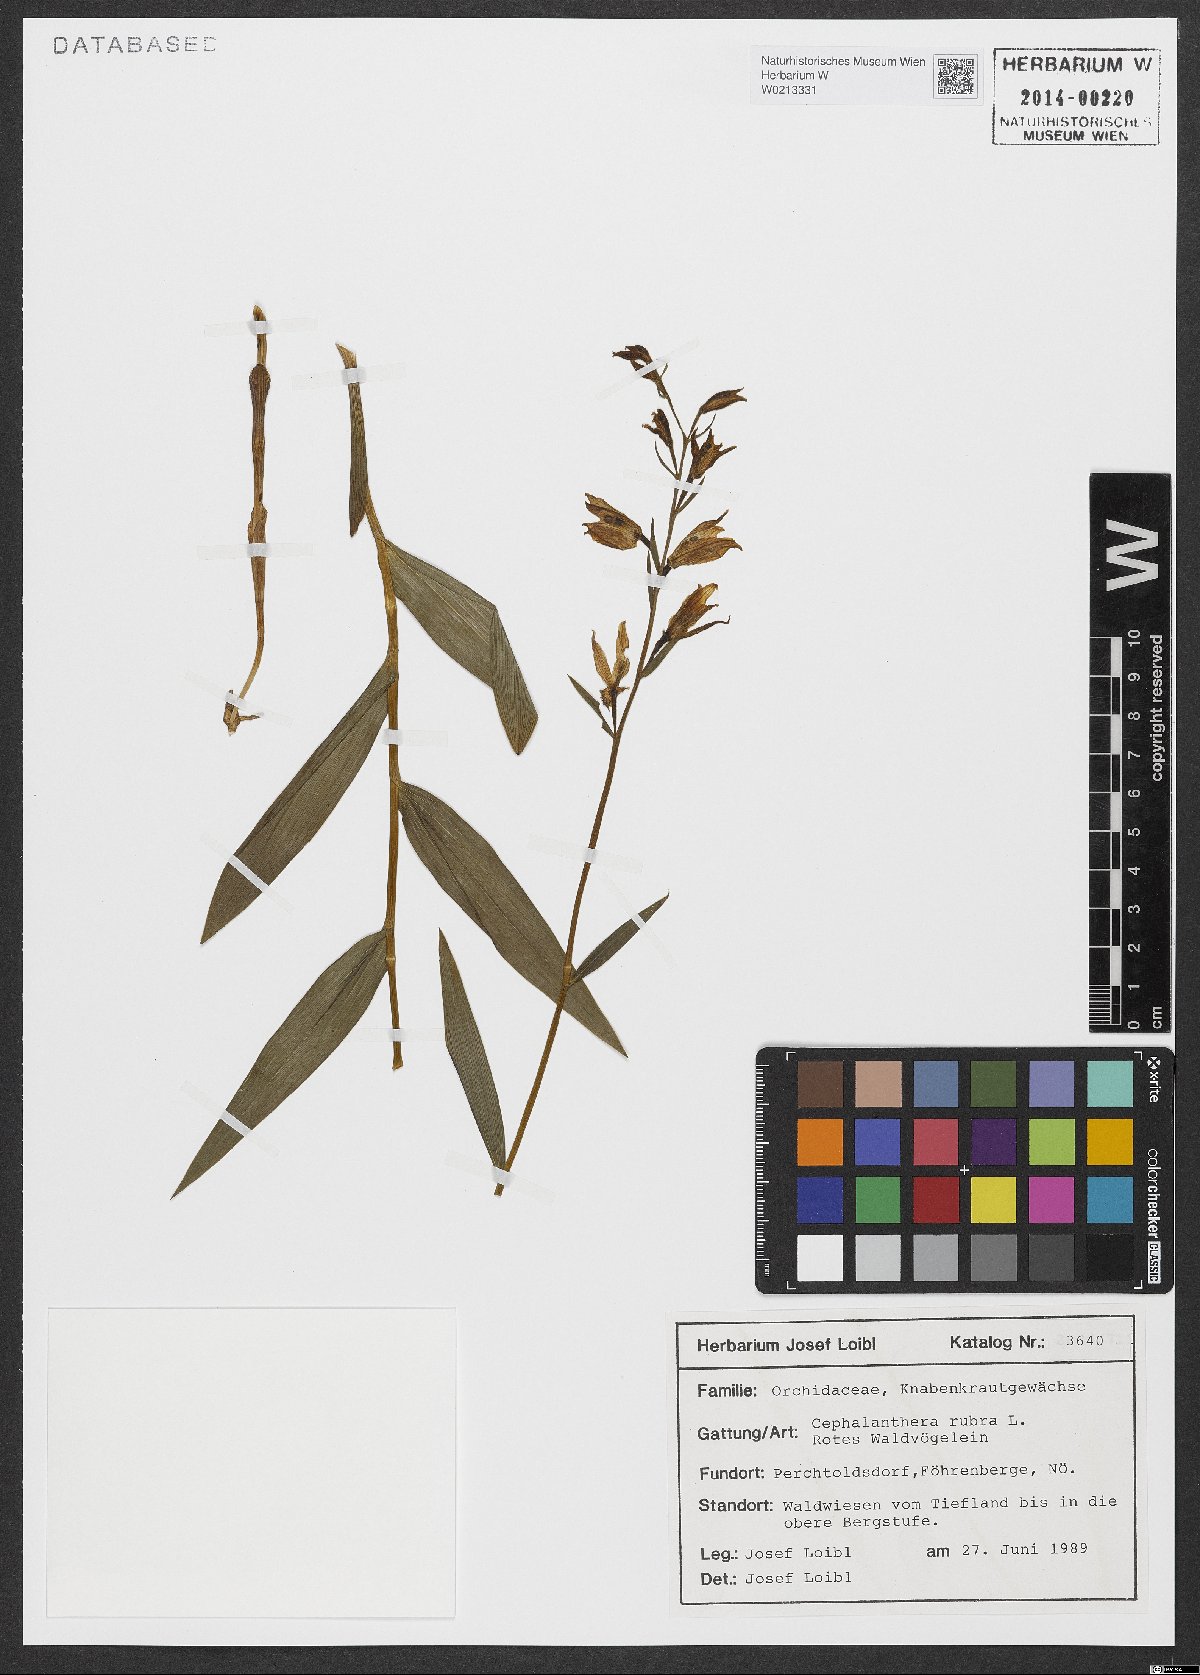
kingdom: Plantae
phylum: Tracheophyta
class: Liliopsida
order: Asparagales
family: Orchidaceae
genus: Cephalanthera
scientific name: Cephalanthera rubra
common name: Red helleborine
